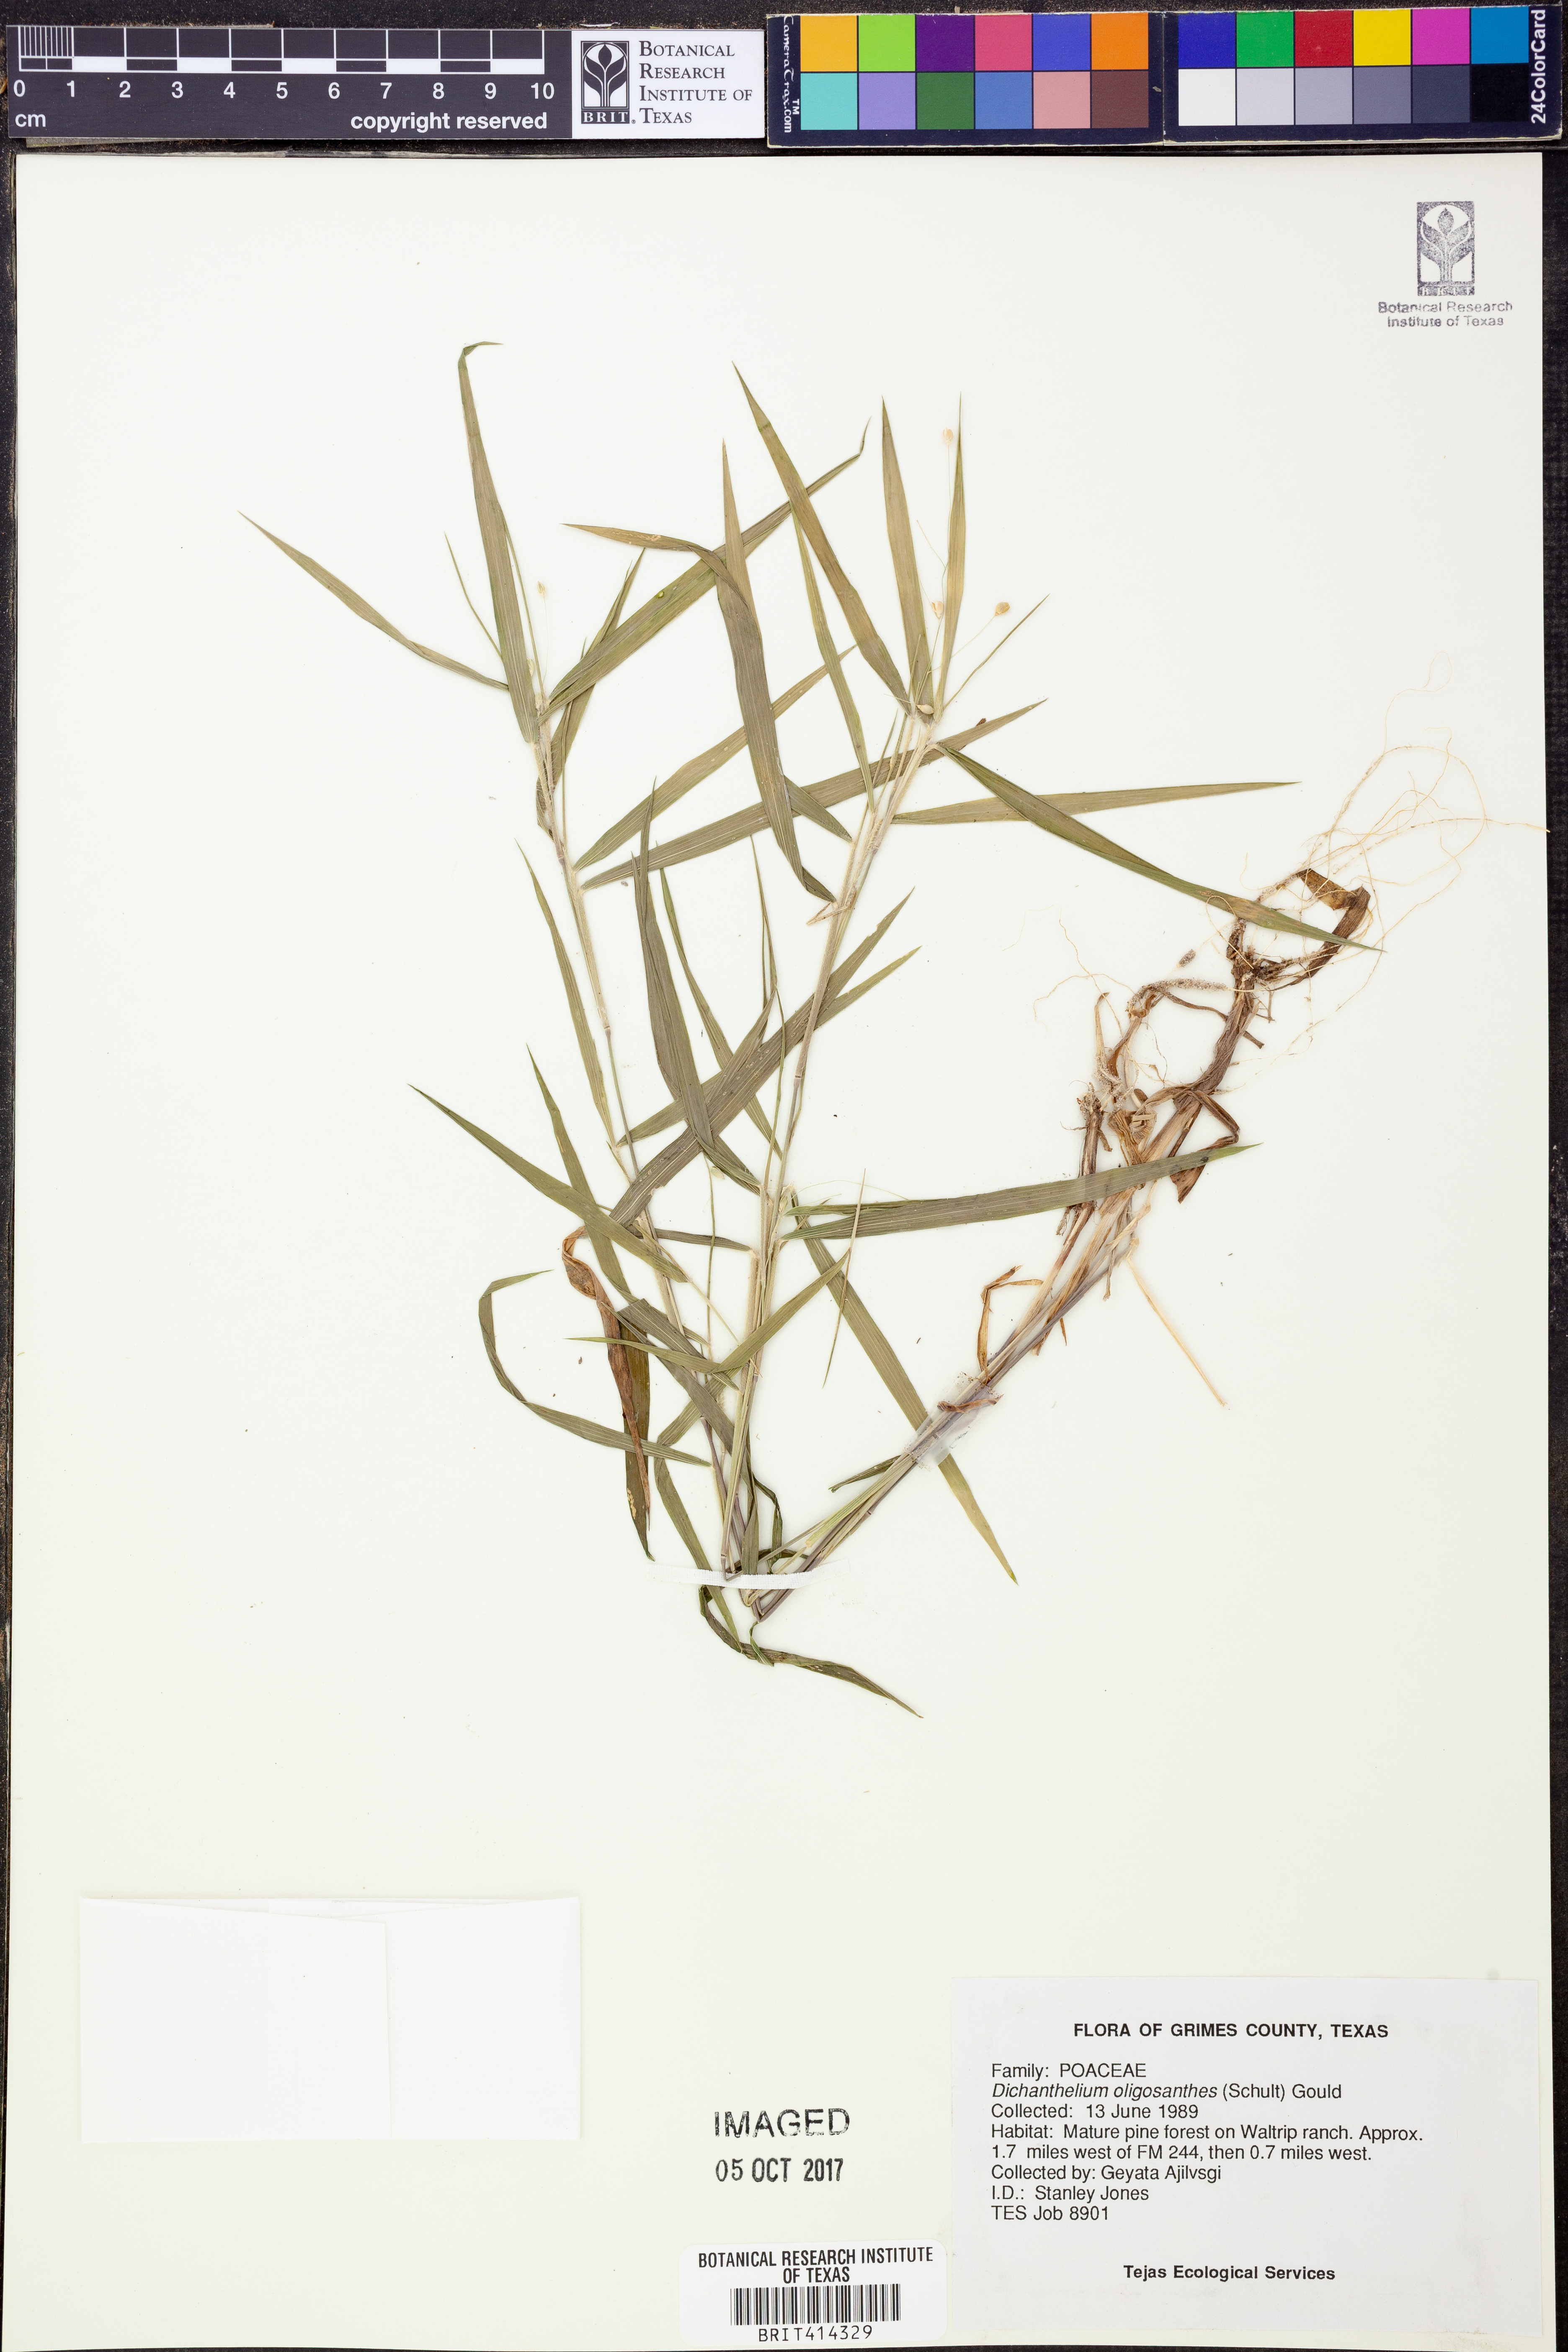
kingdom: Plantae
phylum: Tracheophyta
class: Liliopsida
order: Poales
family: Poaceae
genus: Dichanthelium
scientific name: Dichanthelium oligosanthes
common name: Few-anther obscuregrass
